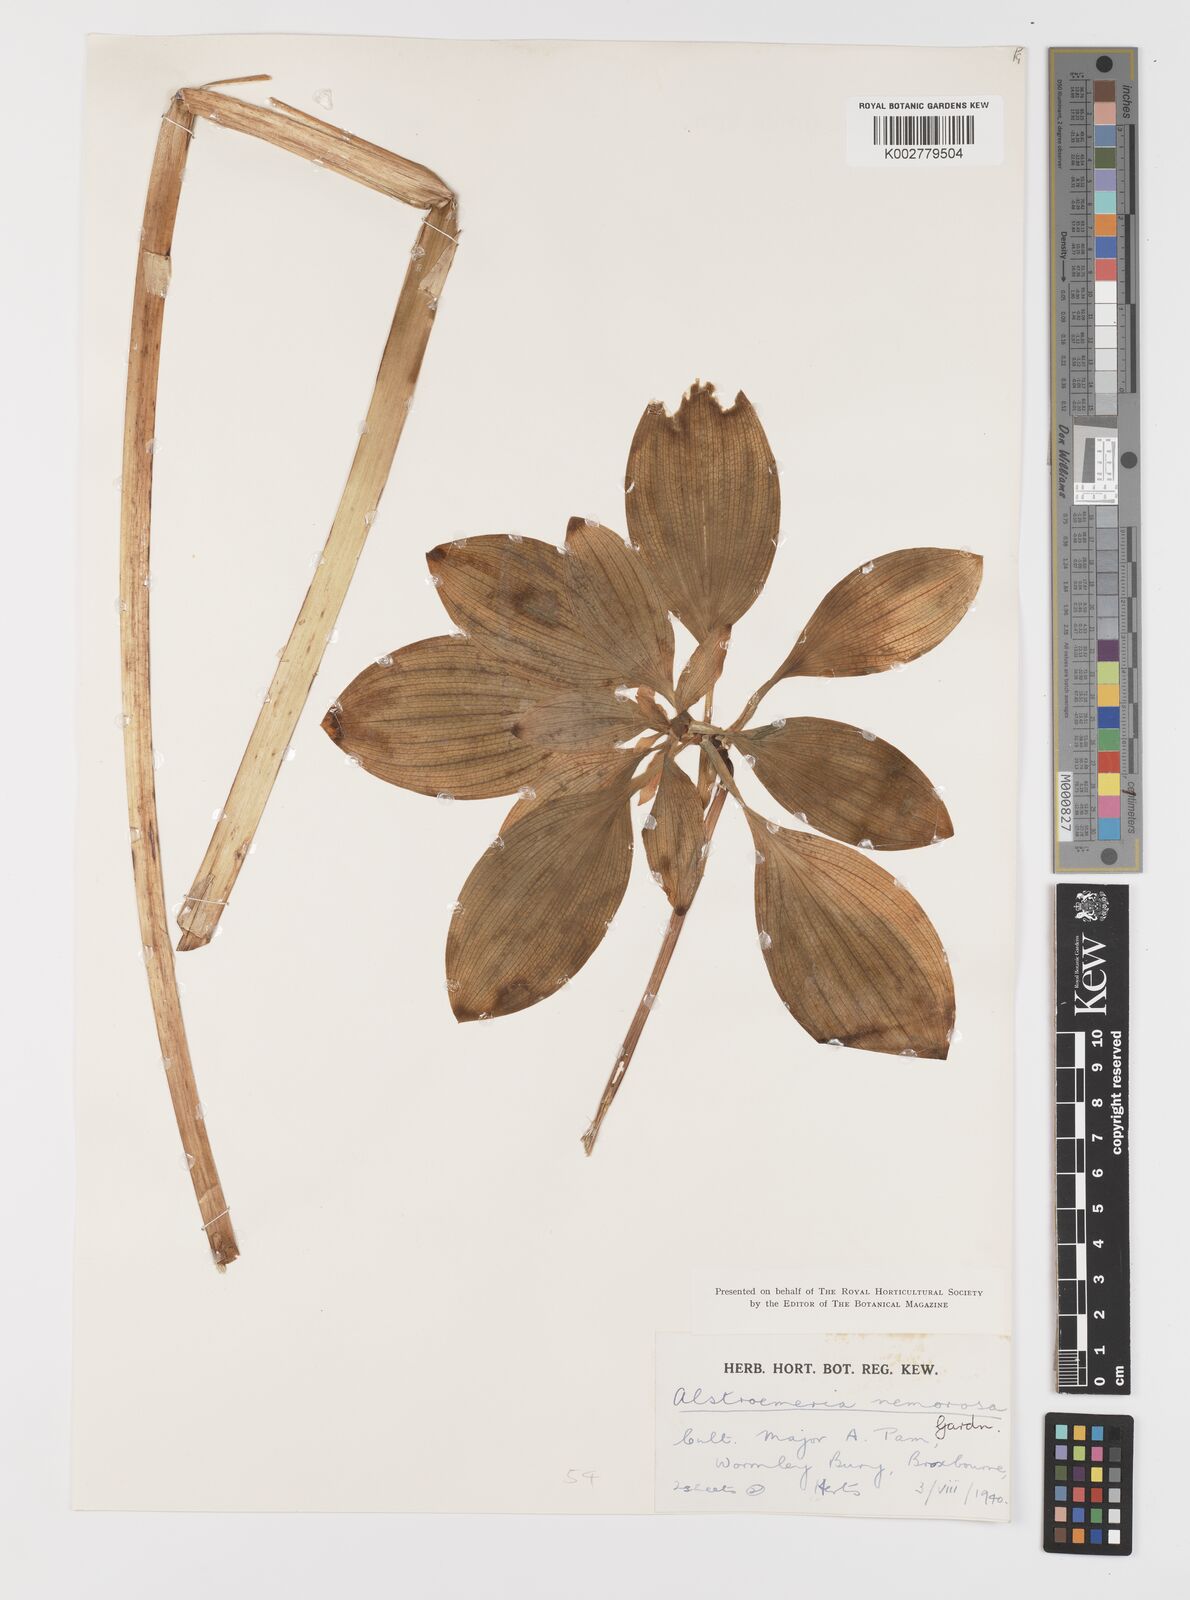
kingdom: Plantae
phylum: Tracheophyta
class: Liliopsida
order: Liliales
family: Alstroemeriaceae
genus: Alstroemeria
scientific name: Alstroemeria cunha
